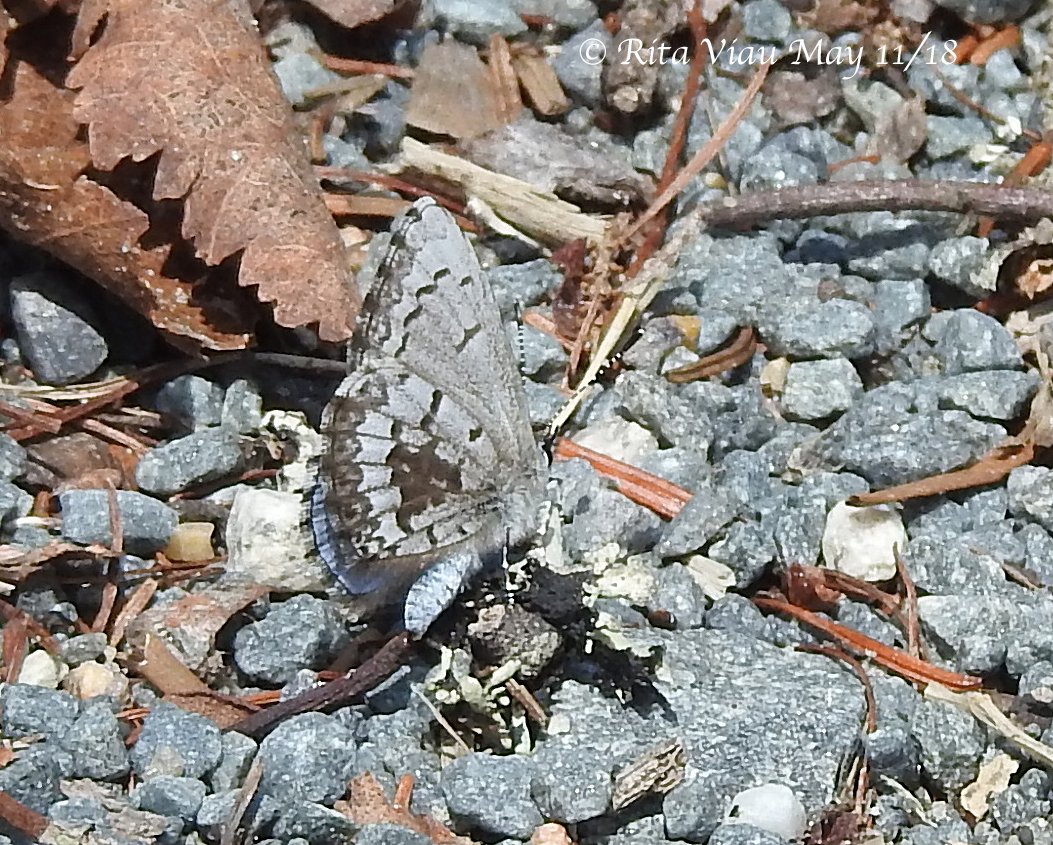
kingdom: Animalia
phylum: Arthropoda
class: Insecta
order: Lepidoptera
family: Lycaenidae
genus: Celastrina
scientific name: Celastrina lucia
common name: Northern Spring Azure
